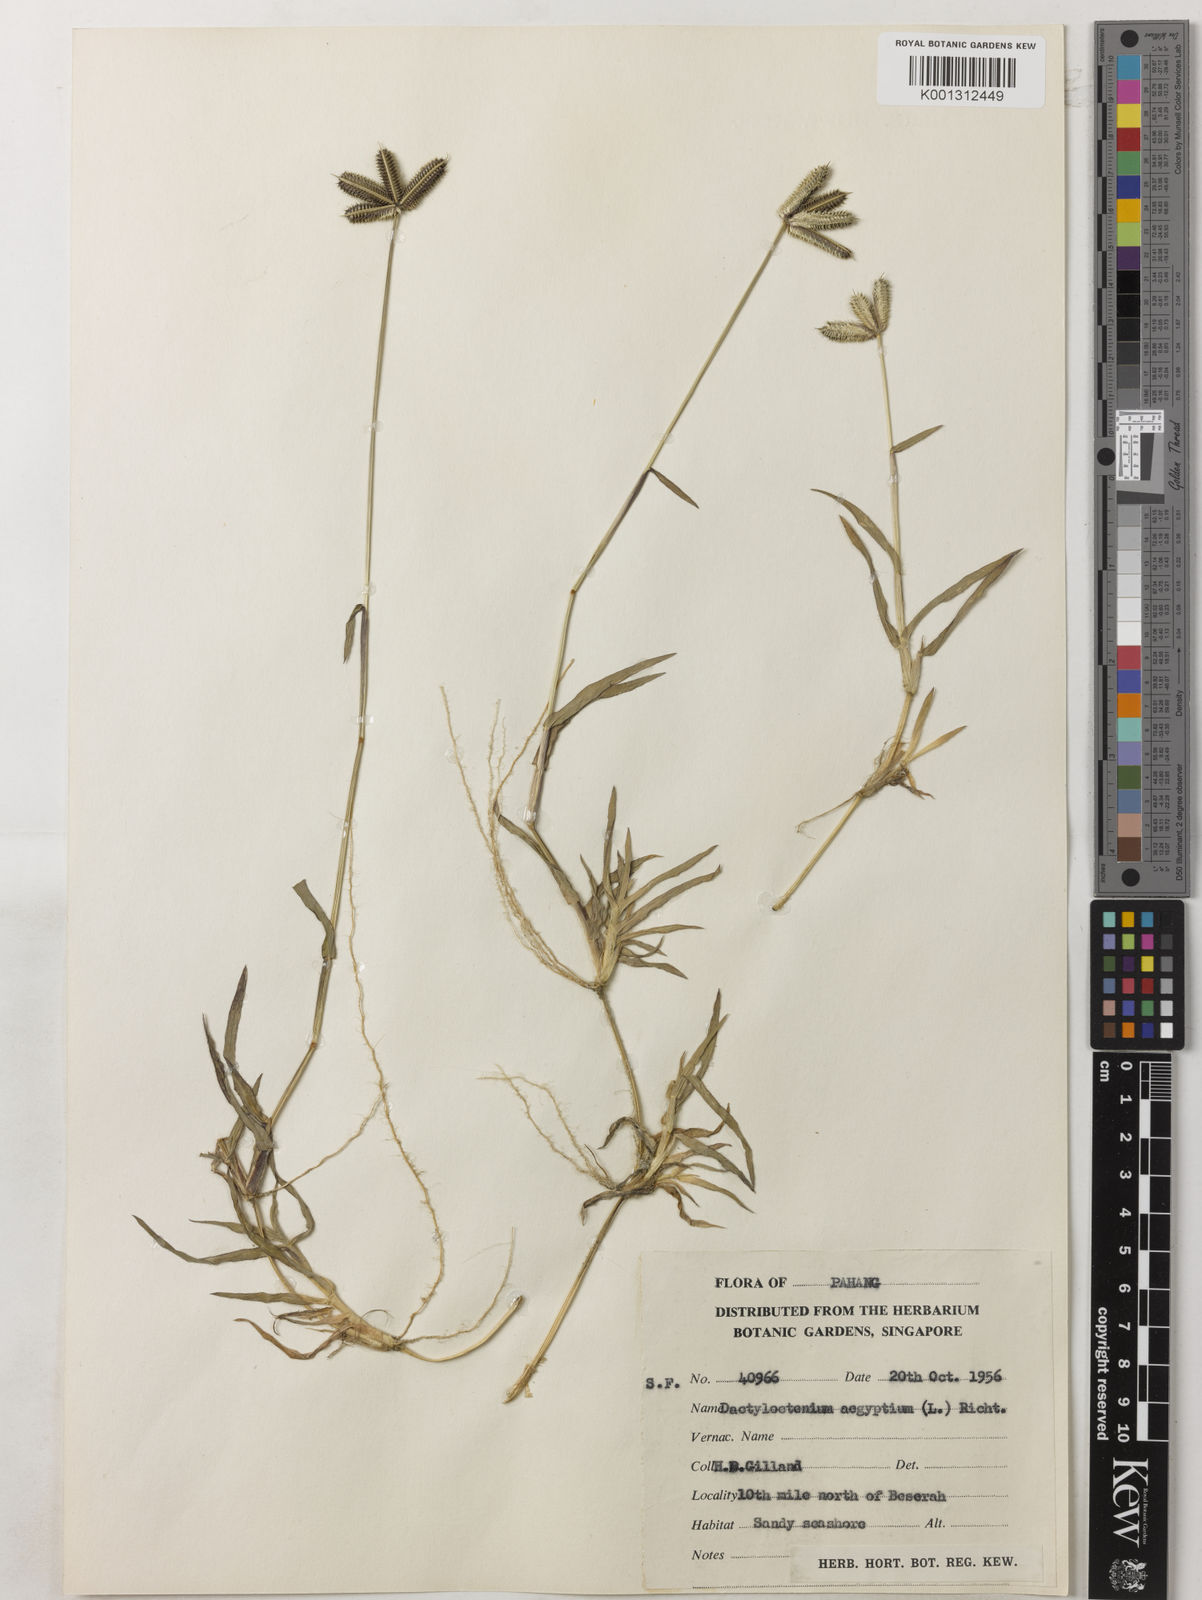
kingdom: Plantae
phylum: Tracheophyta
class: Liliopsida
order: Poales
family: Poaceae
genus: Dactyloctenium
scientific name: Dactyloctenium aegyptium
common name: Egyptian grass
